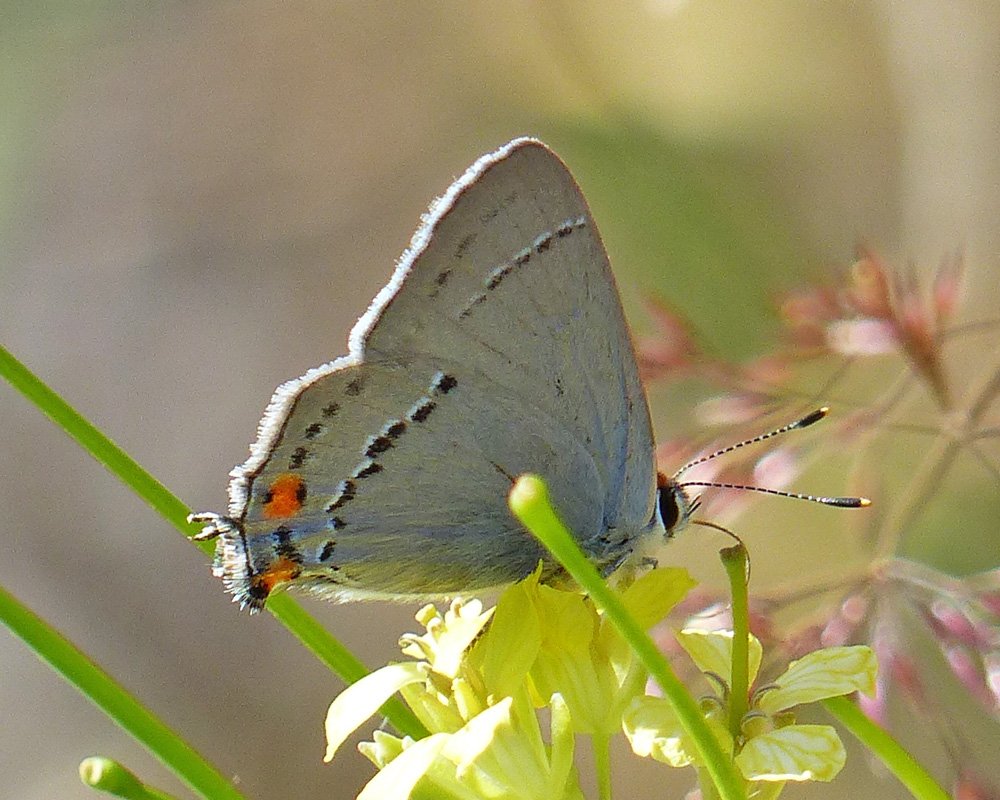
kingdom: Animalia
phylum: Arthropoda
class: Insecta
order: Lepidoptera
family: Lycaenidae
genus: Strymon
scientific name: Strymon melinus
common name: Gray Hairstreak
